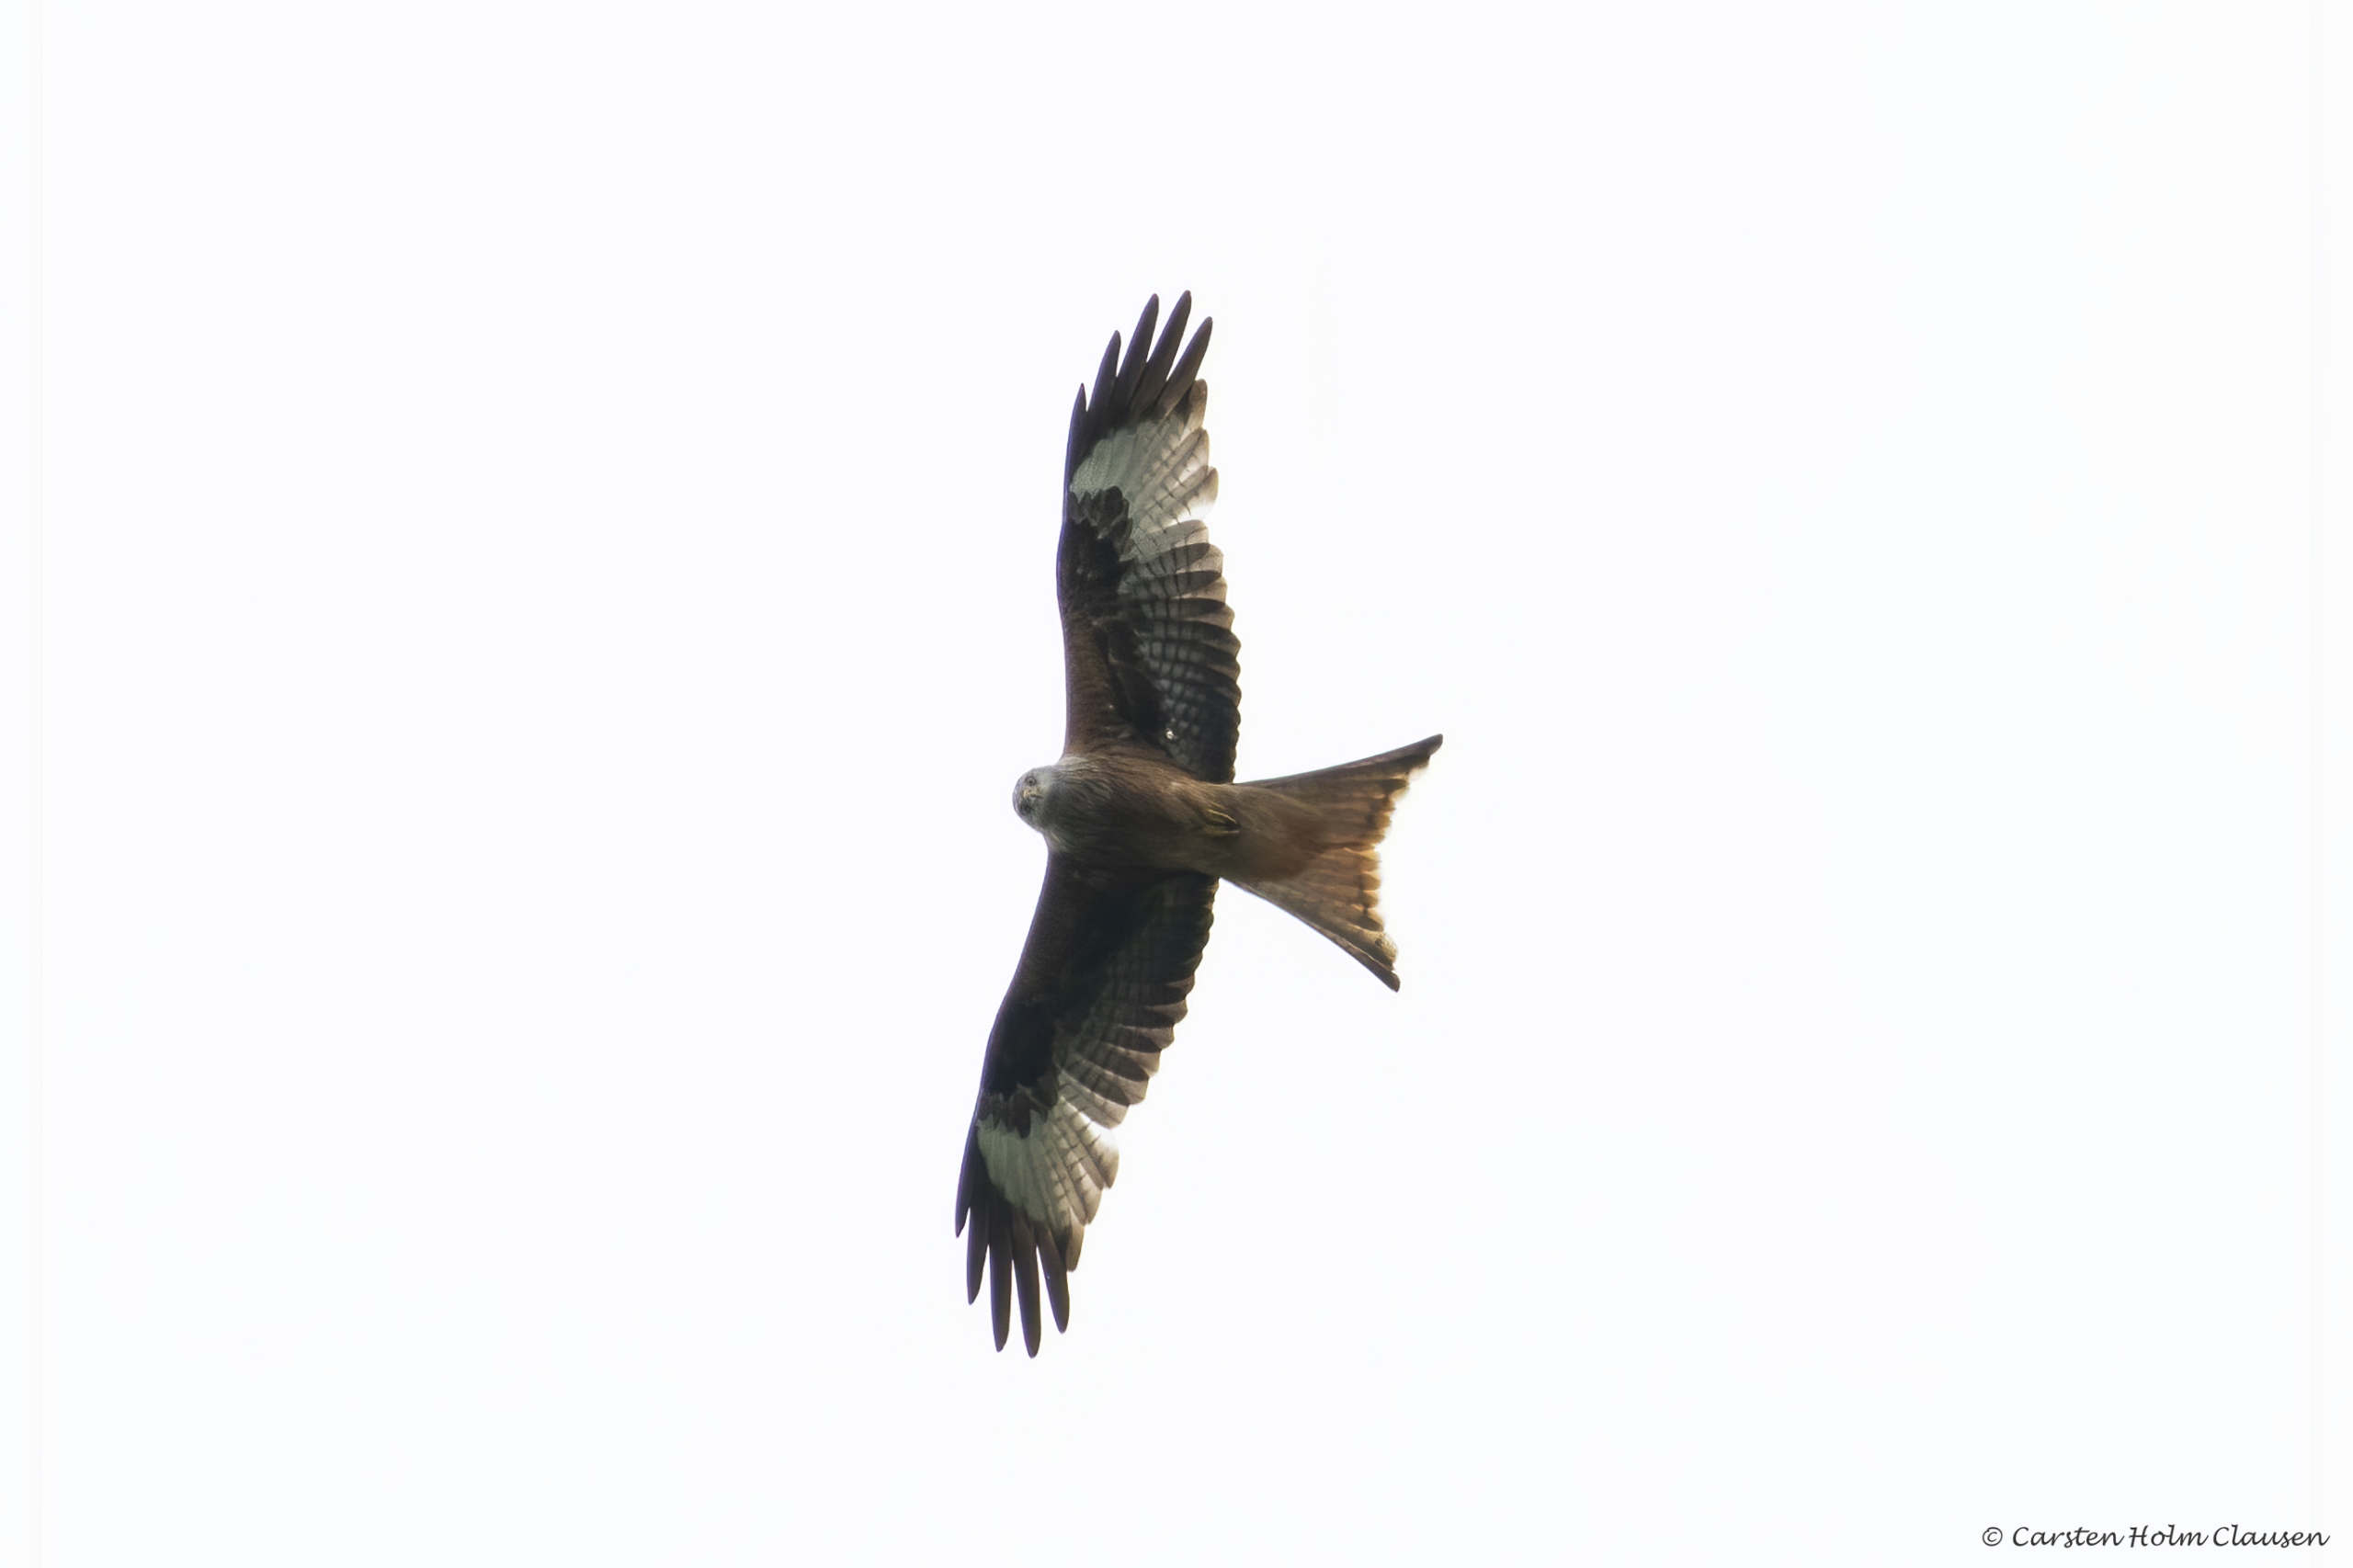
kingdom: Animalia
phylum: Chordata
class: Aves
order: Accipitriformes
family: Accipitridae
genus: Milvus
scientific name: Milvus milvus
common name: Rød glente
